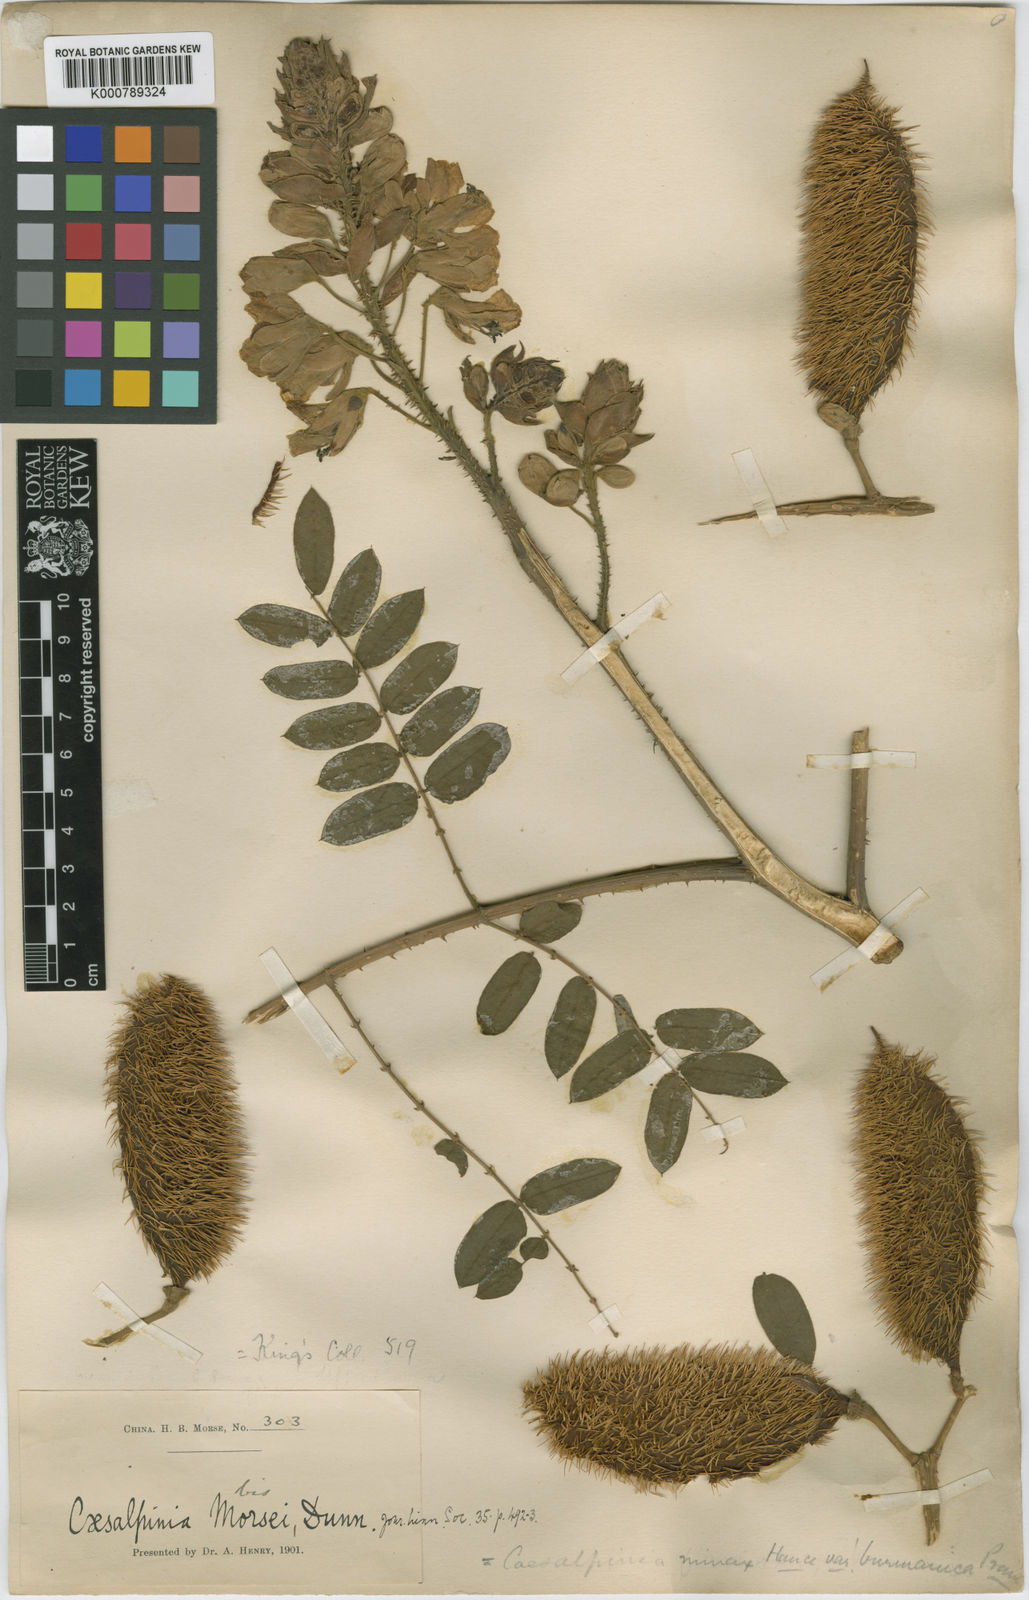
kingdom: Plantae
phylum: Tracheophyta
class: Magnoliopsida
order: Fabales
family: Fabaceae
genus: Guilandina
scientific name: Guilandina
